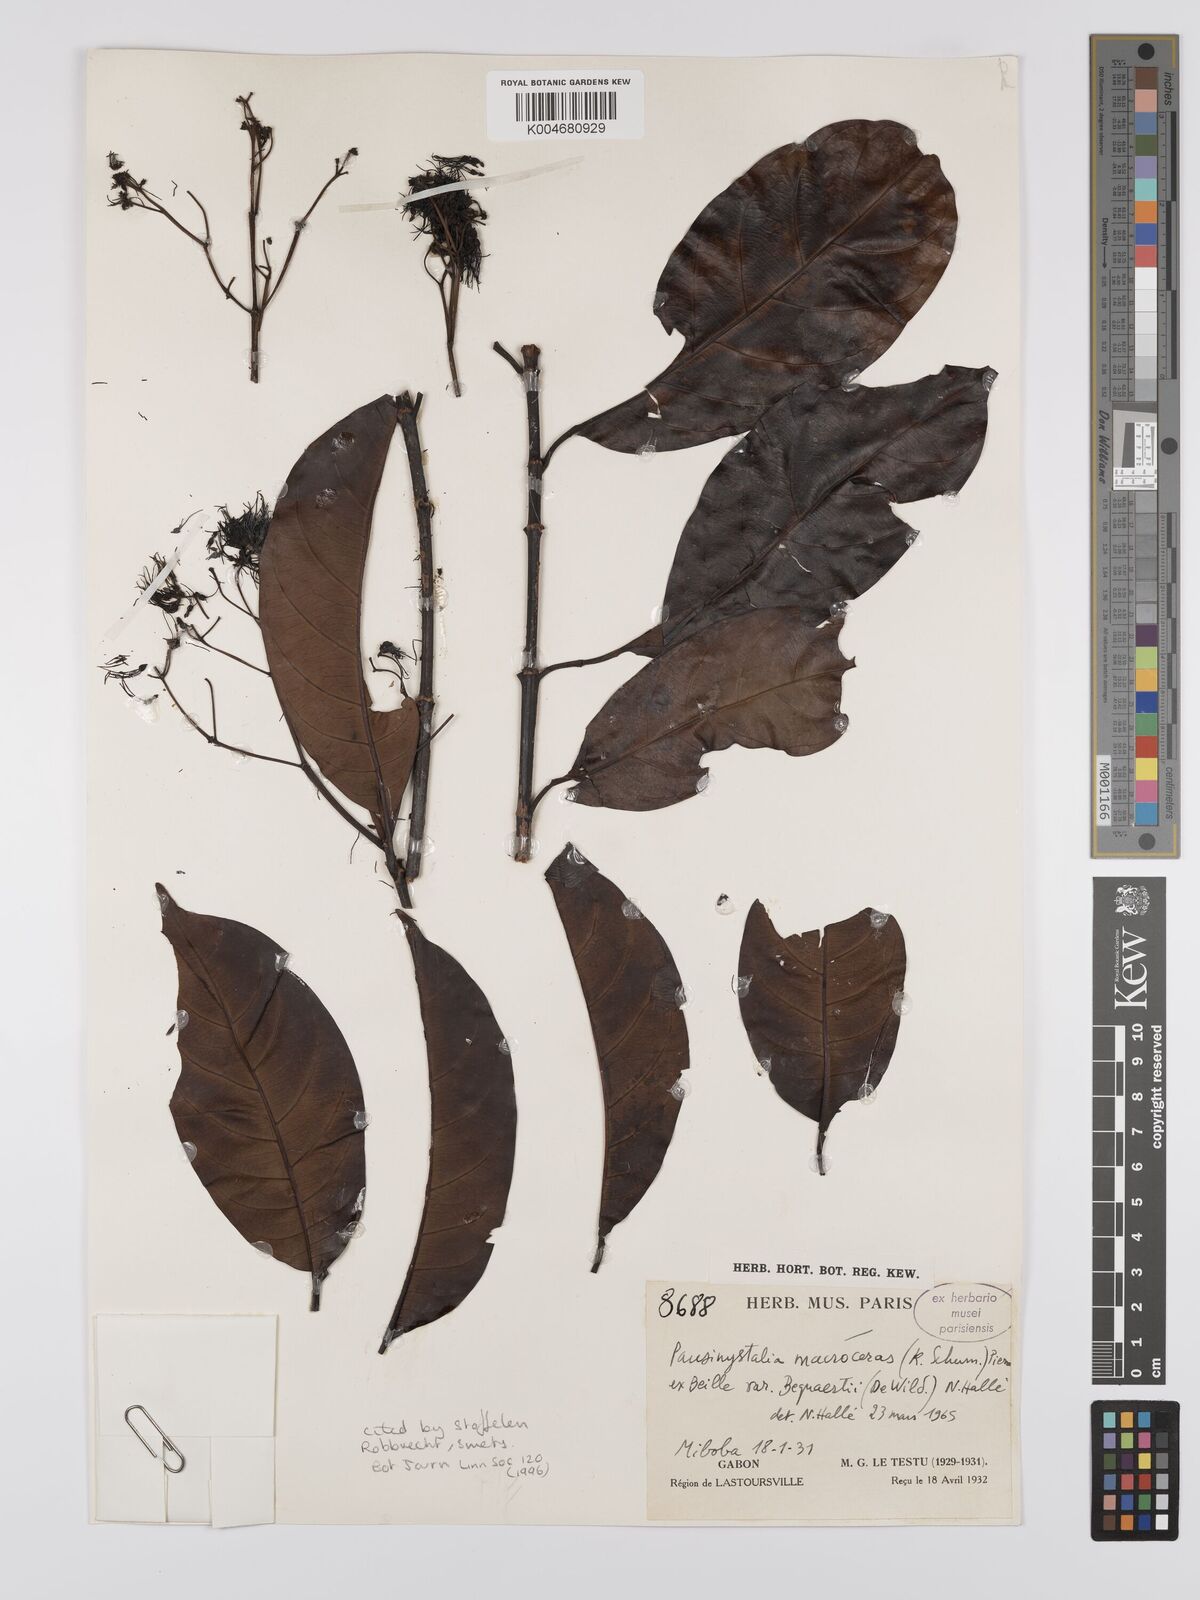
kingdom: Plantae
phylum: Tracheophyta
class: Magnoliopsida
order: Gentianales
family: Rubiaceae
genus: Corynanthe
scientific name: Corynanthe macroceras
